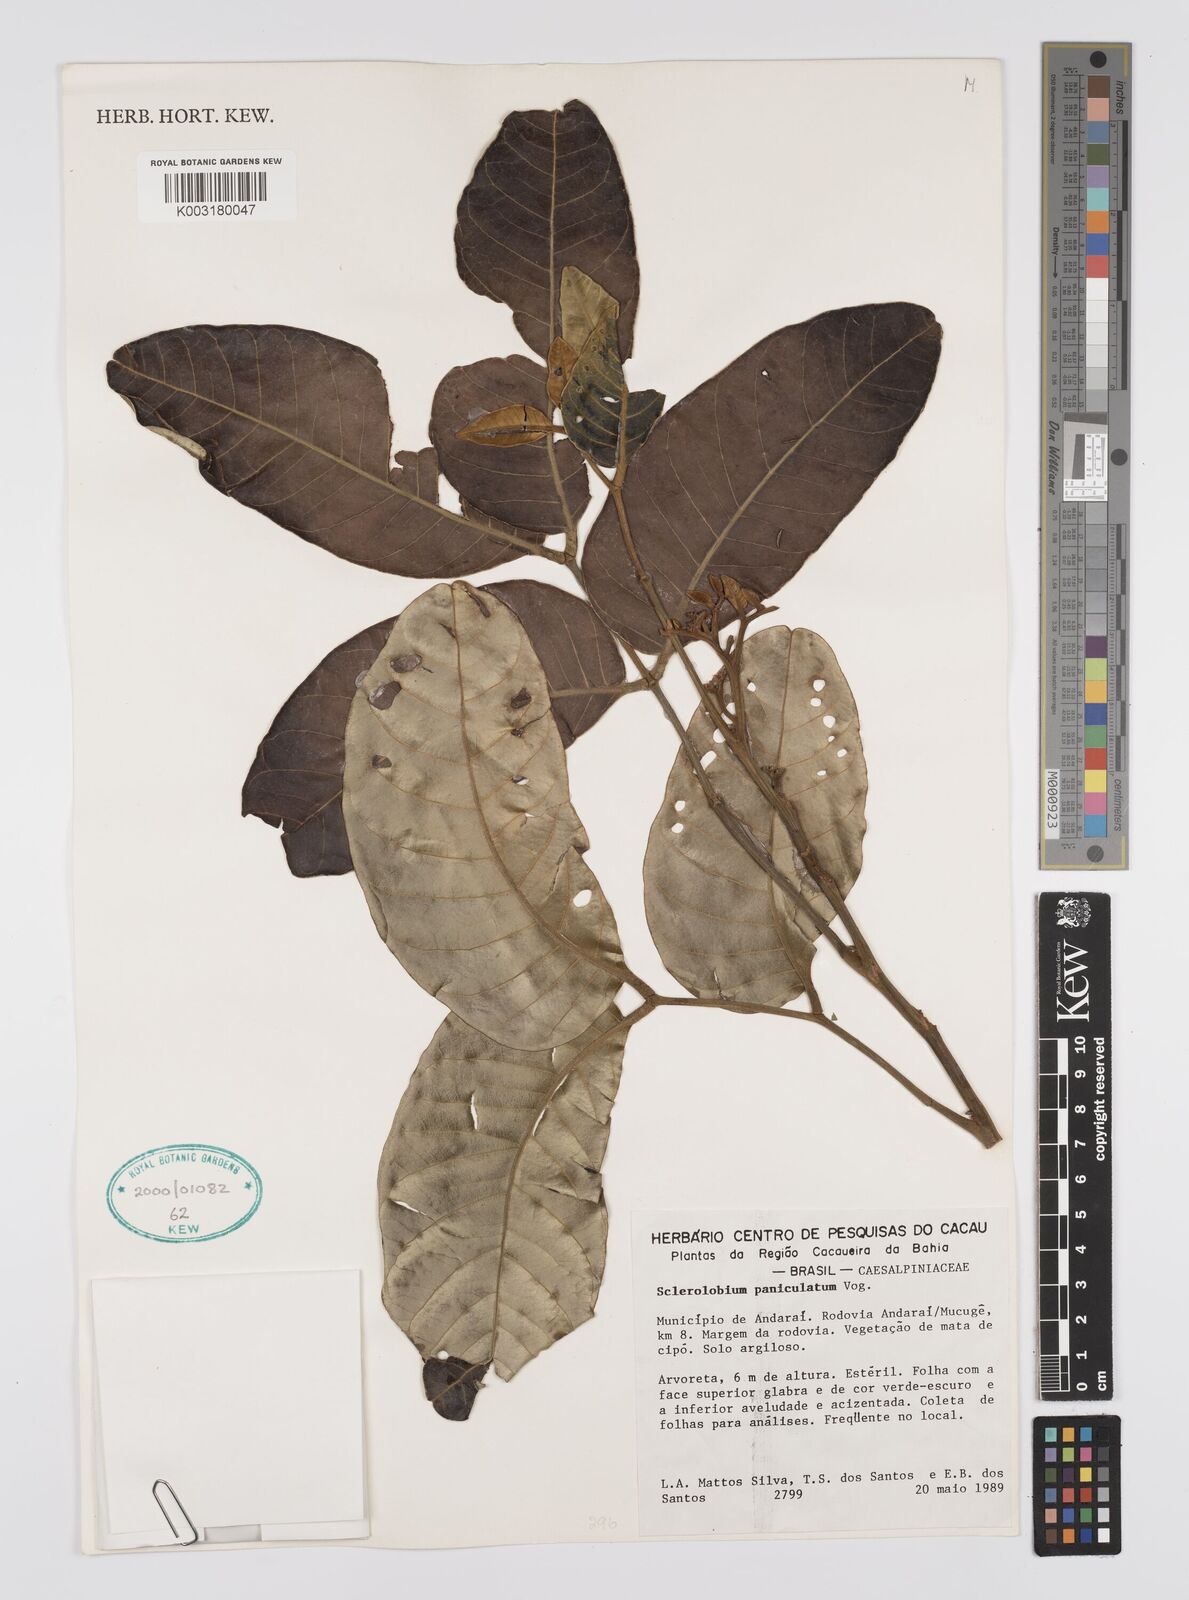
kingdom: Plantae
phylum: Tracheophyta
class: Magnoliopsida
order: Fabales
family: Fabaceae
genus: Tachigali
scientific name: Tachigali subvelutina
